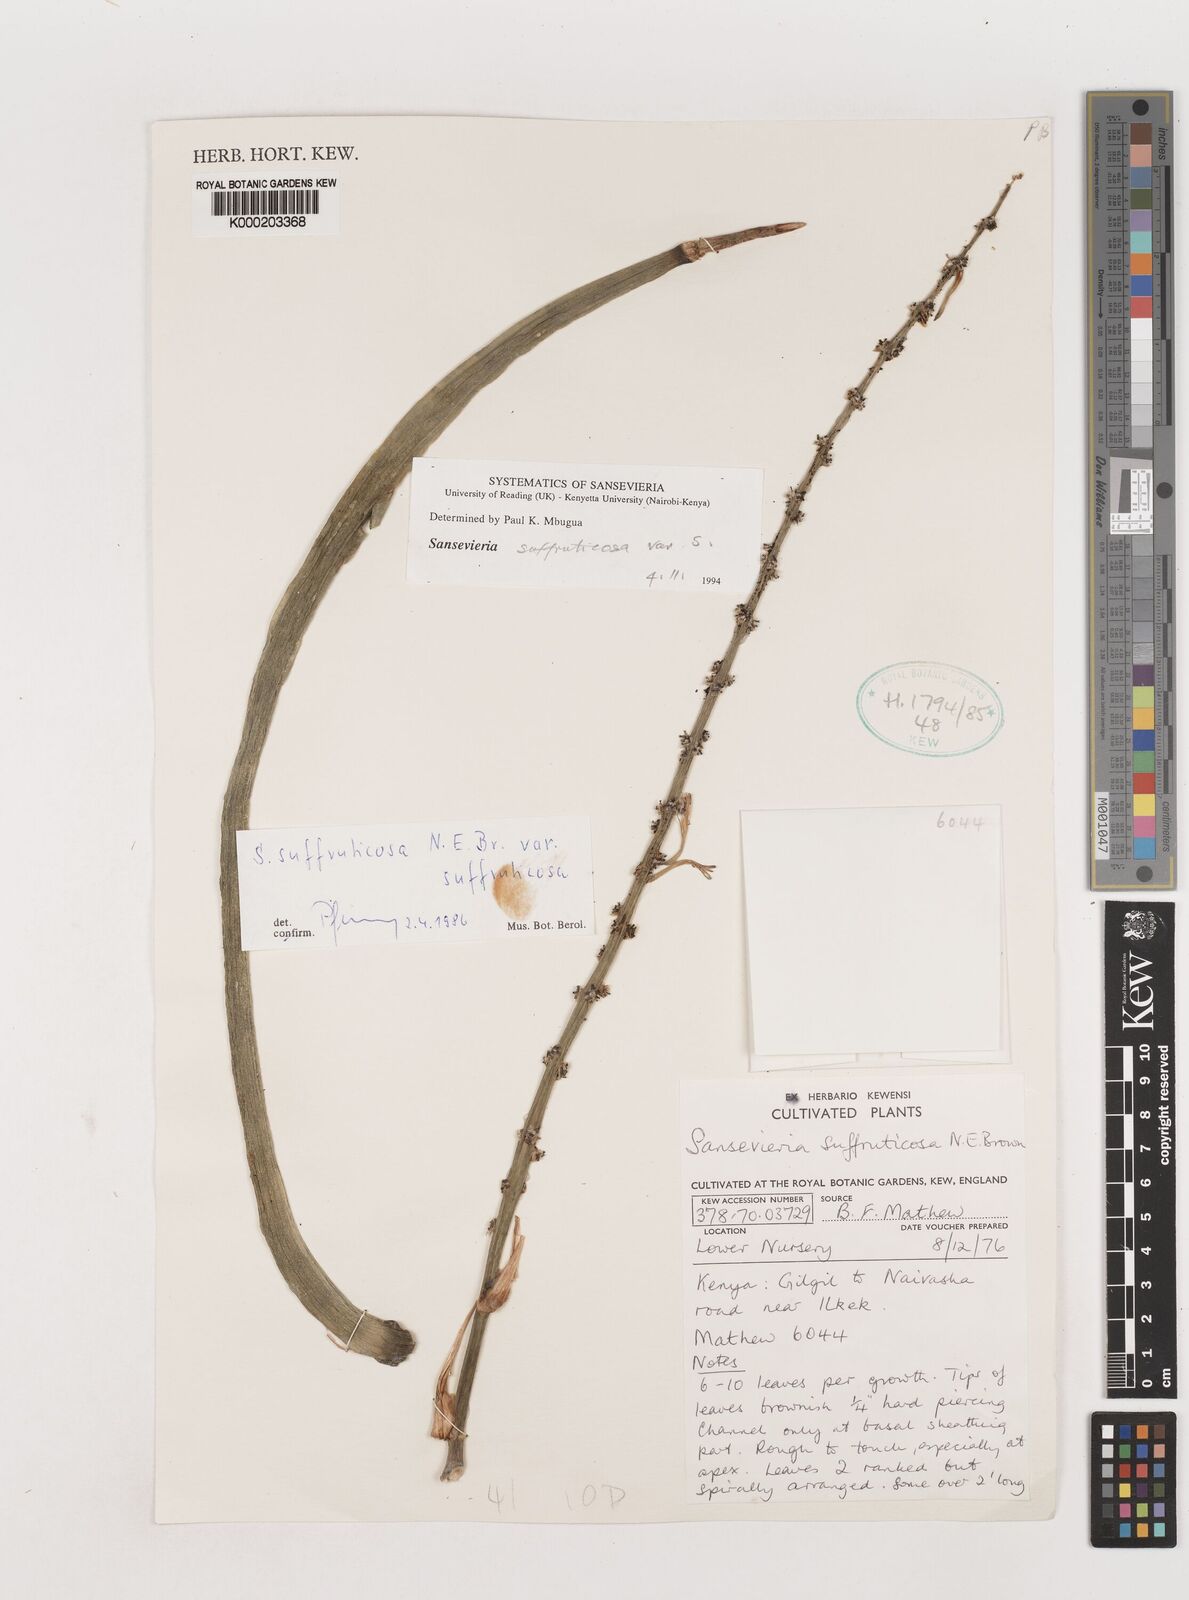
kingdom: Plantae
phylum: Tracheophyta
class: Liliopsida
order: Asparagales
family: Asparagaceae
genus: Dracaena
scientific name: Dracaena suffruticosa
